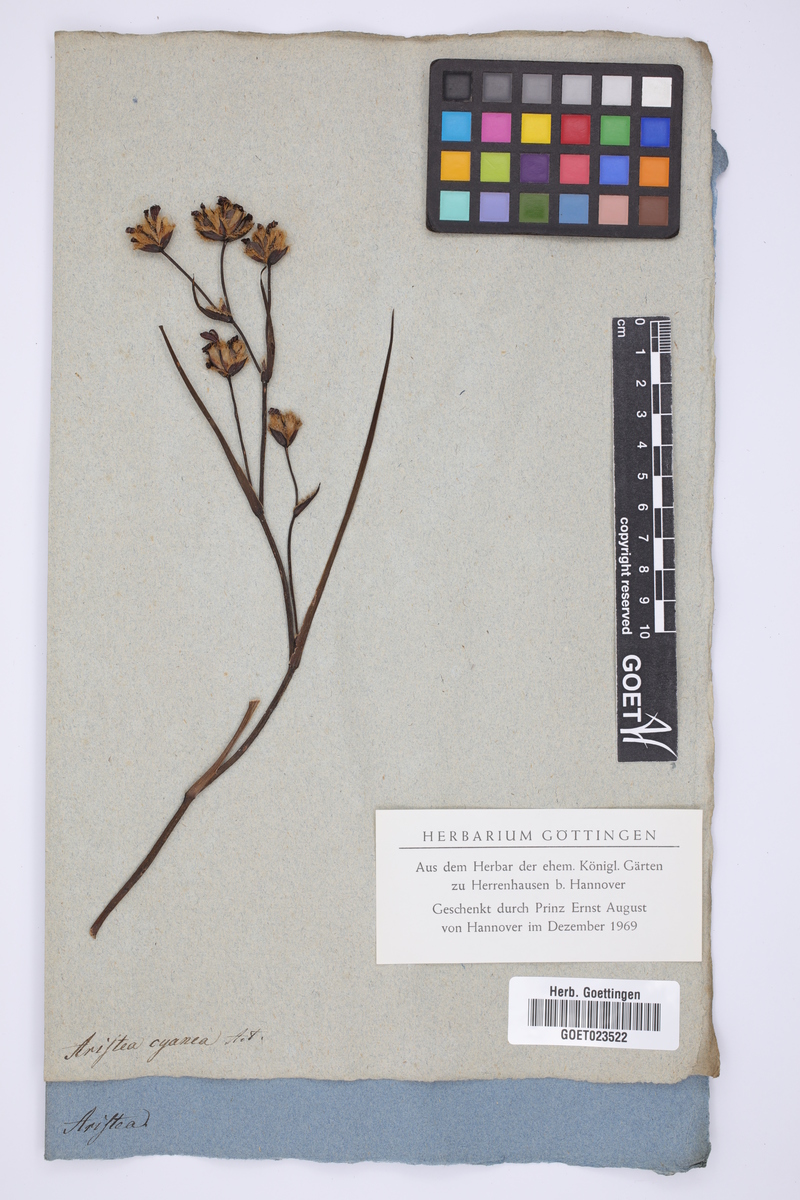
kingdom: Plantae
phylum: Tracheophyta
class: Liliopsida
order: Asparagales
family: Iridaceae
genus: Aristea
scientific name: Aristea africana
